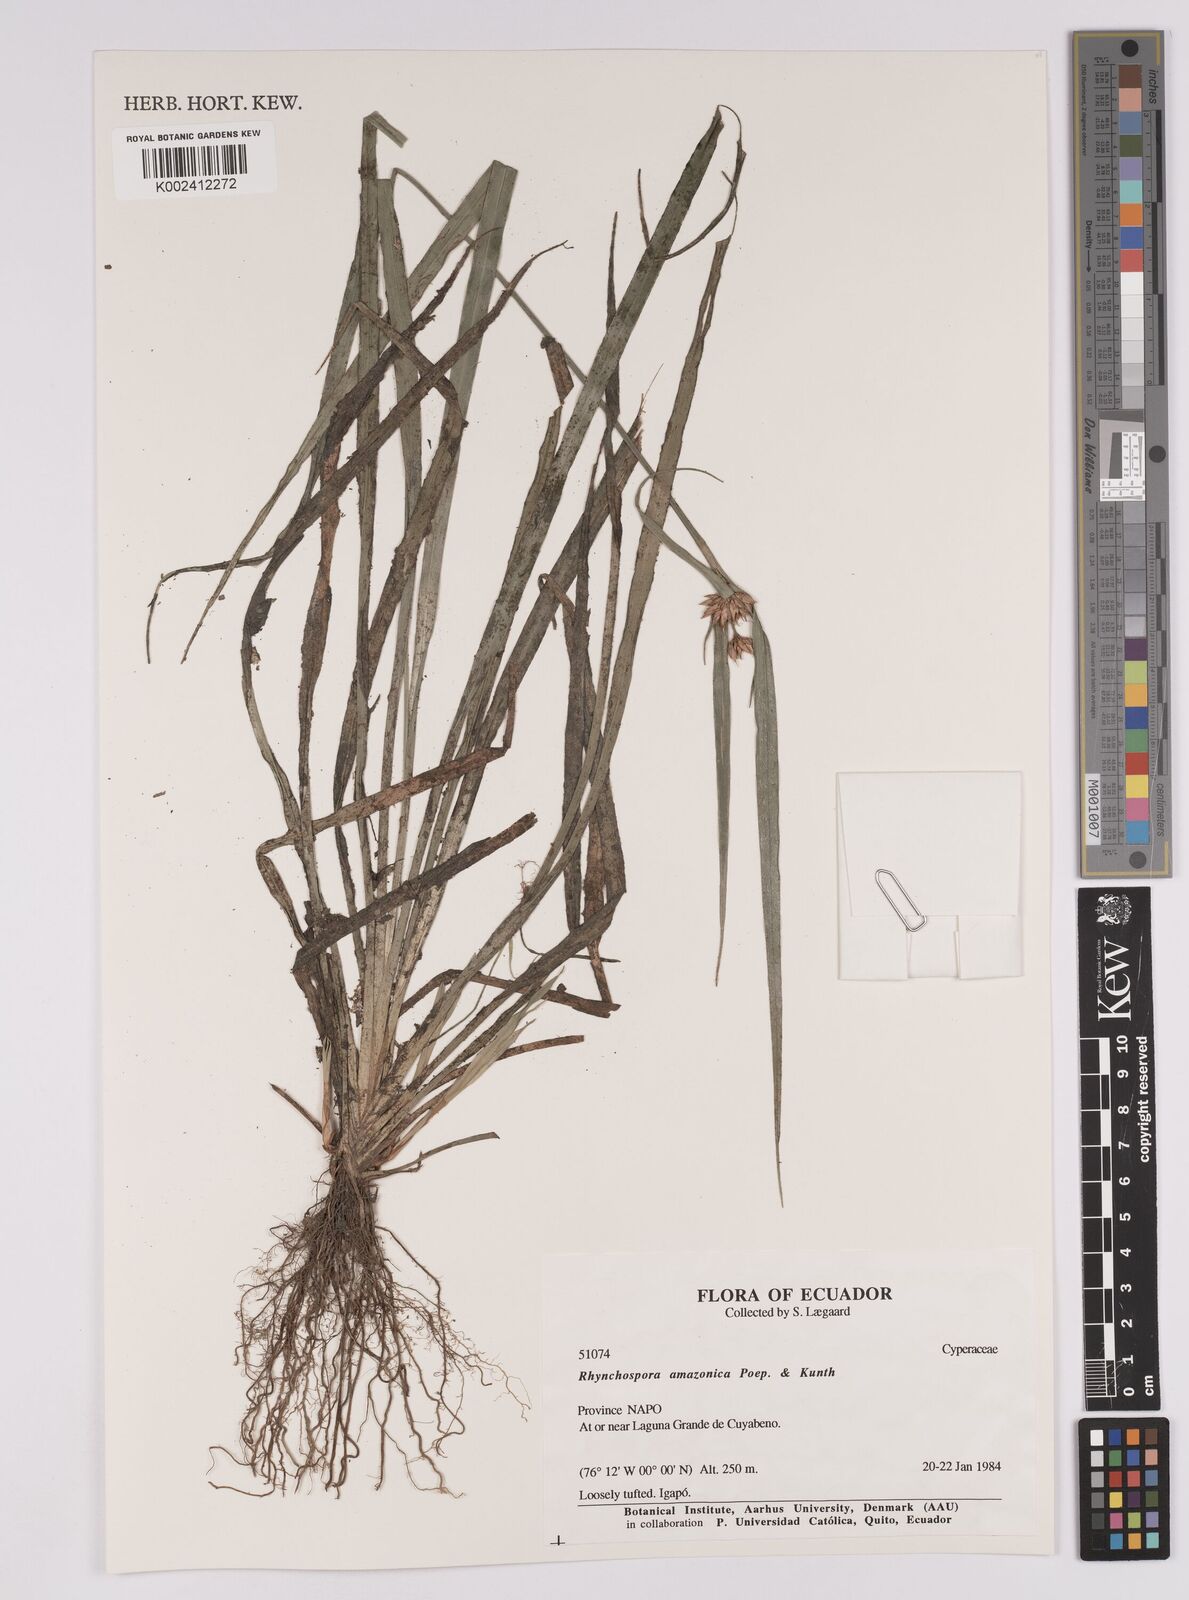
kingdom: Plantae
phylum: Tracheophyta
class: Liliopsida
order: Poales
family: Cyperaceae
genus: Rhynchospora
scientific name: Rhynchospora amazonica
